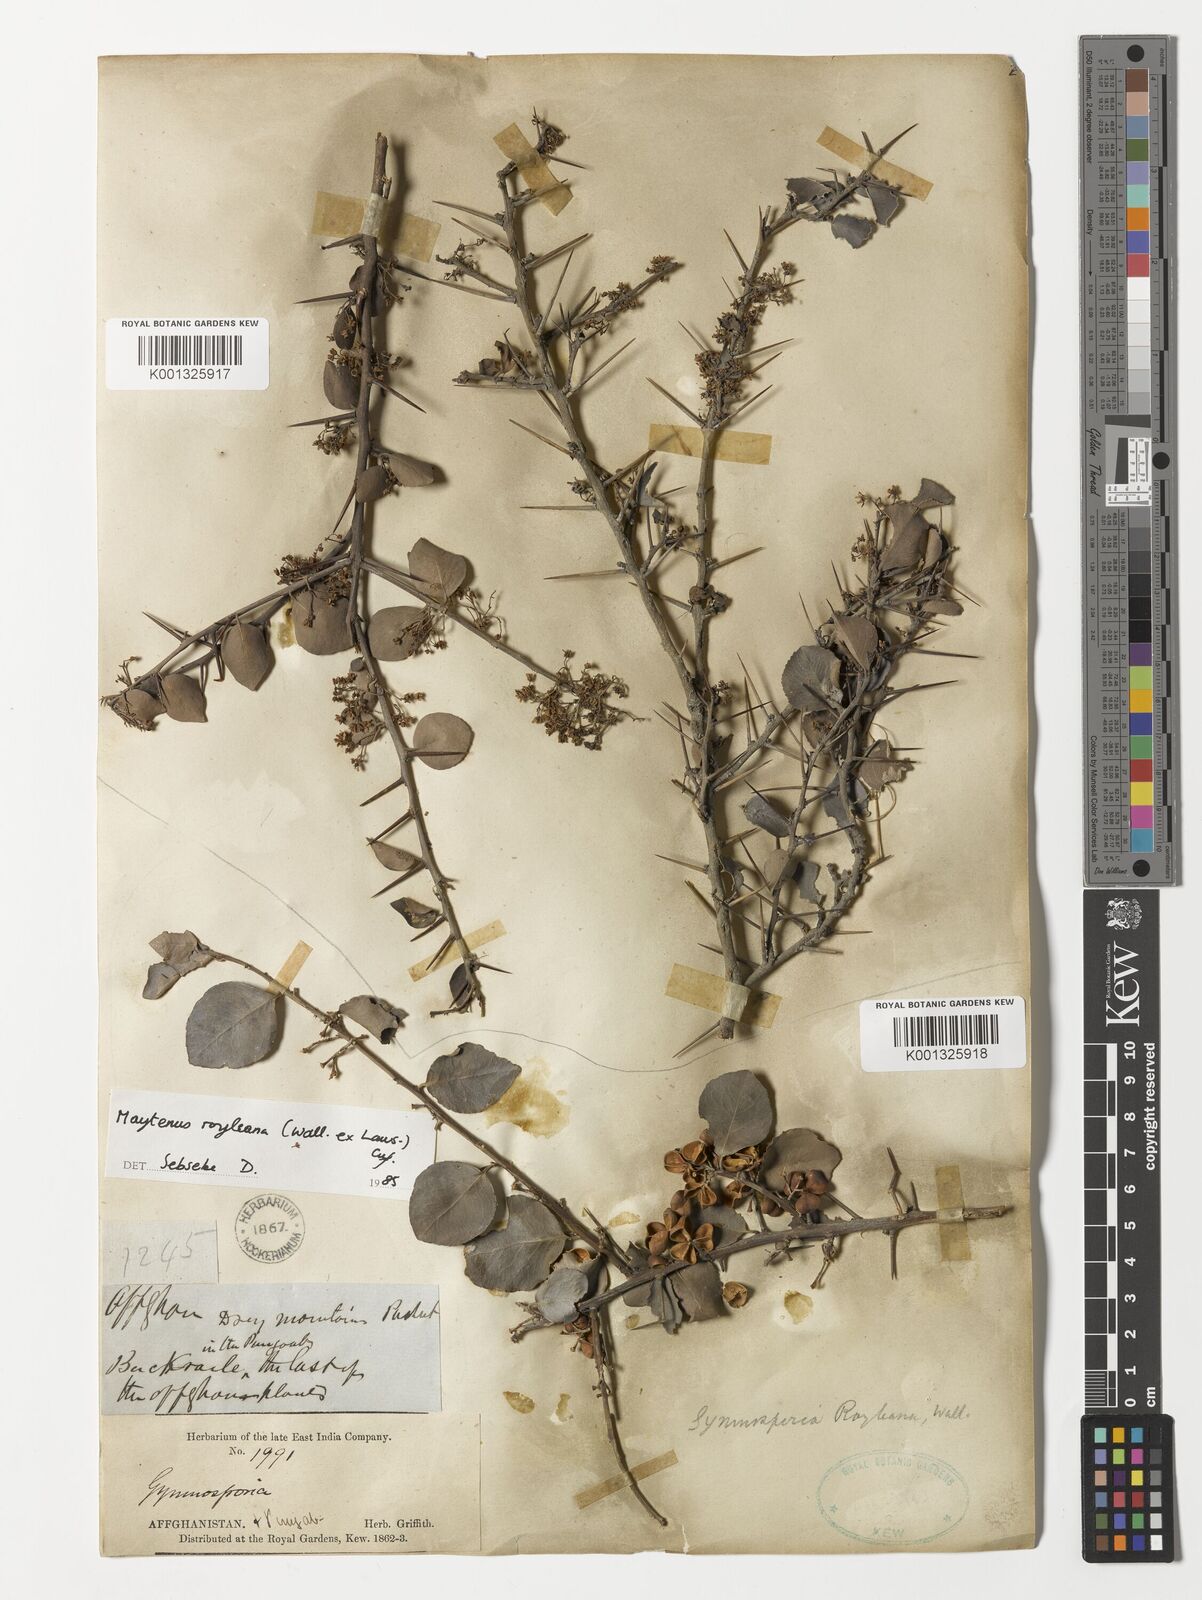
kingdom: Plantae
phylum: Tracheophyta
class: Magnoliopsida
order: Celastrales
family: Celastraceae
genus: Gymnosporia
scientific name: Gymnosporia royleana
